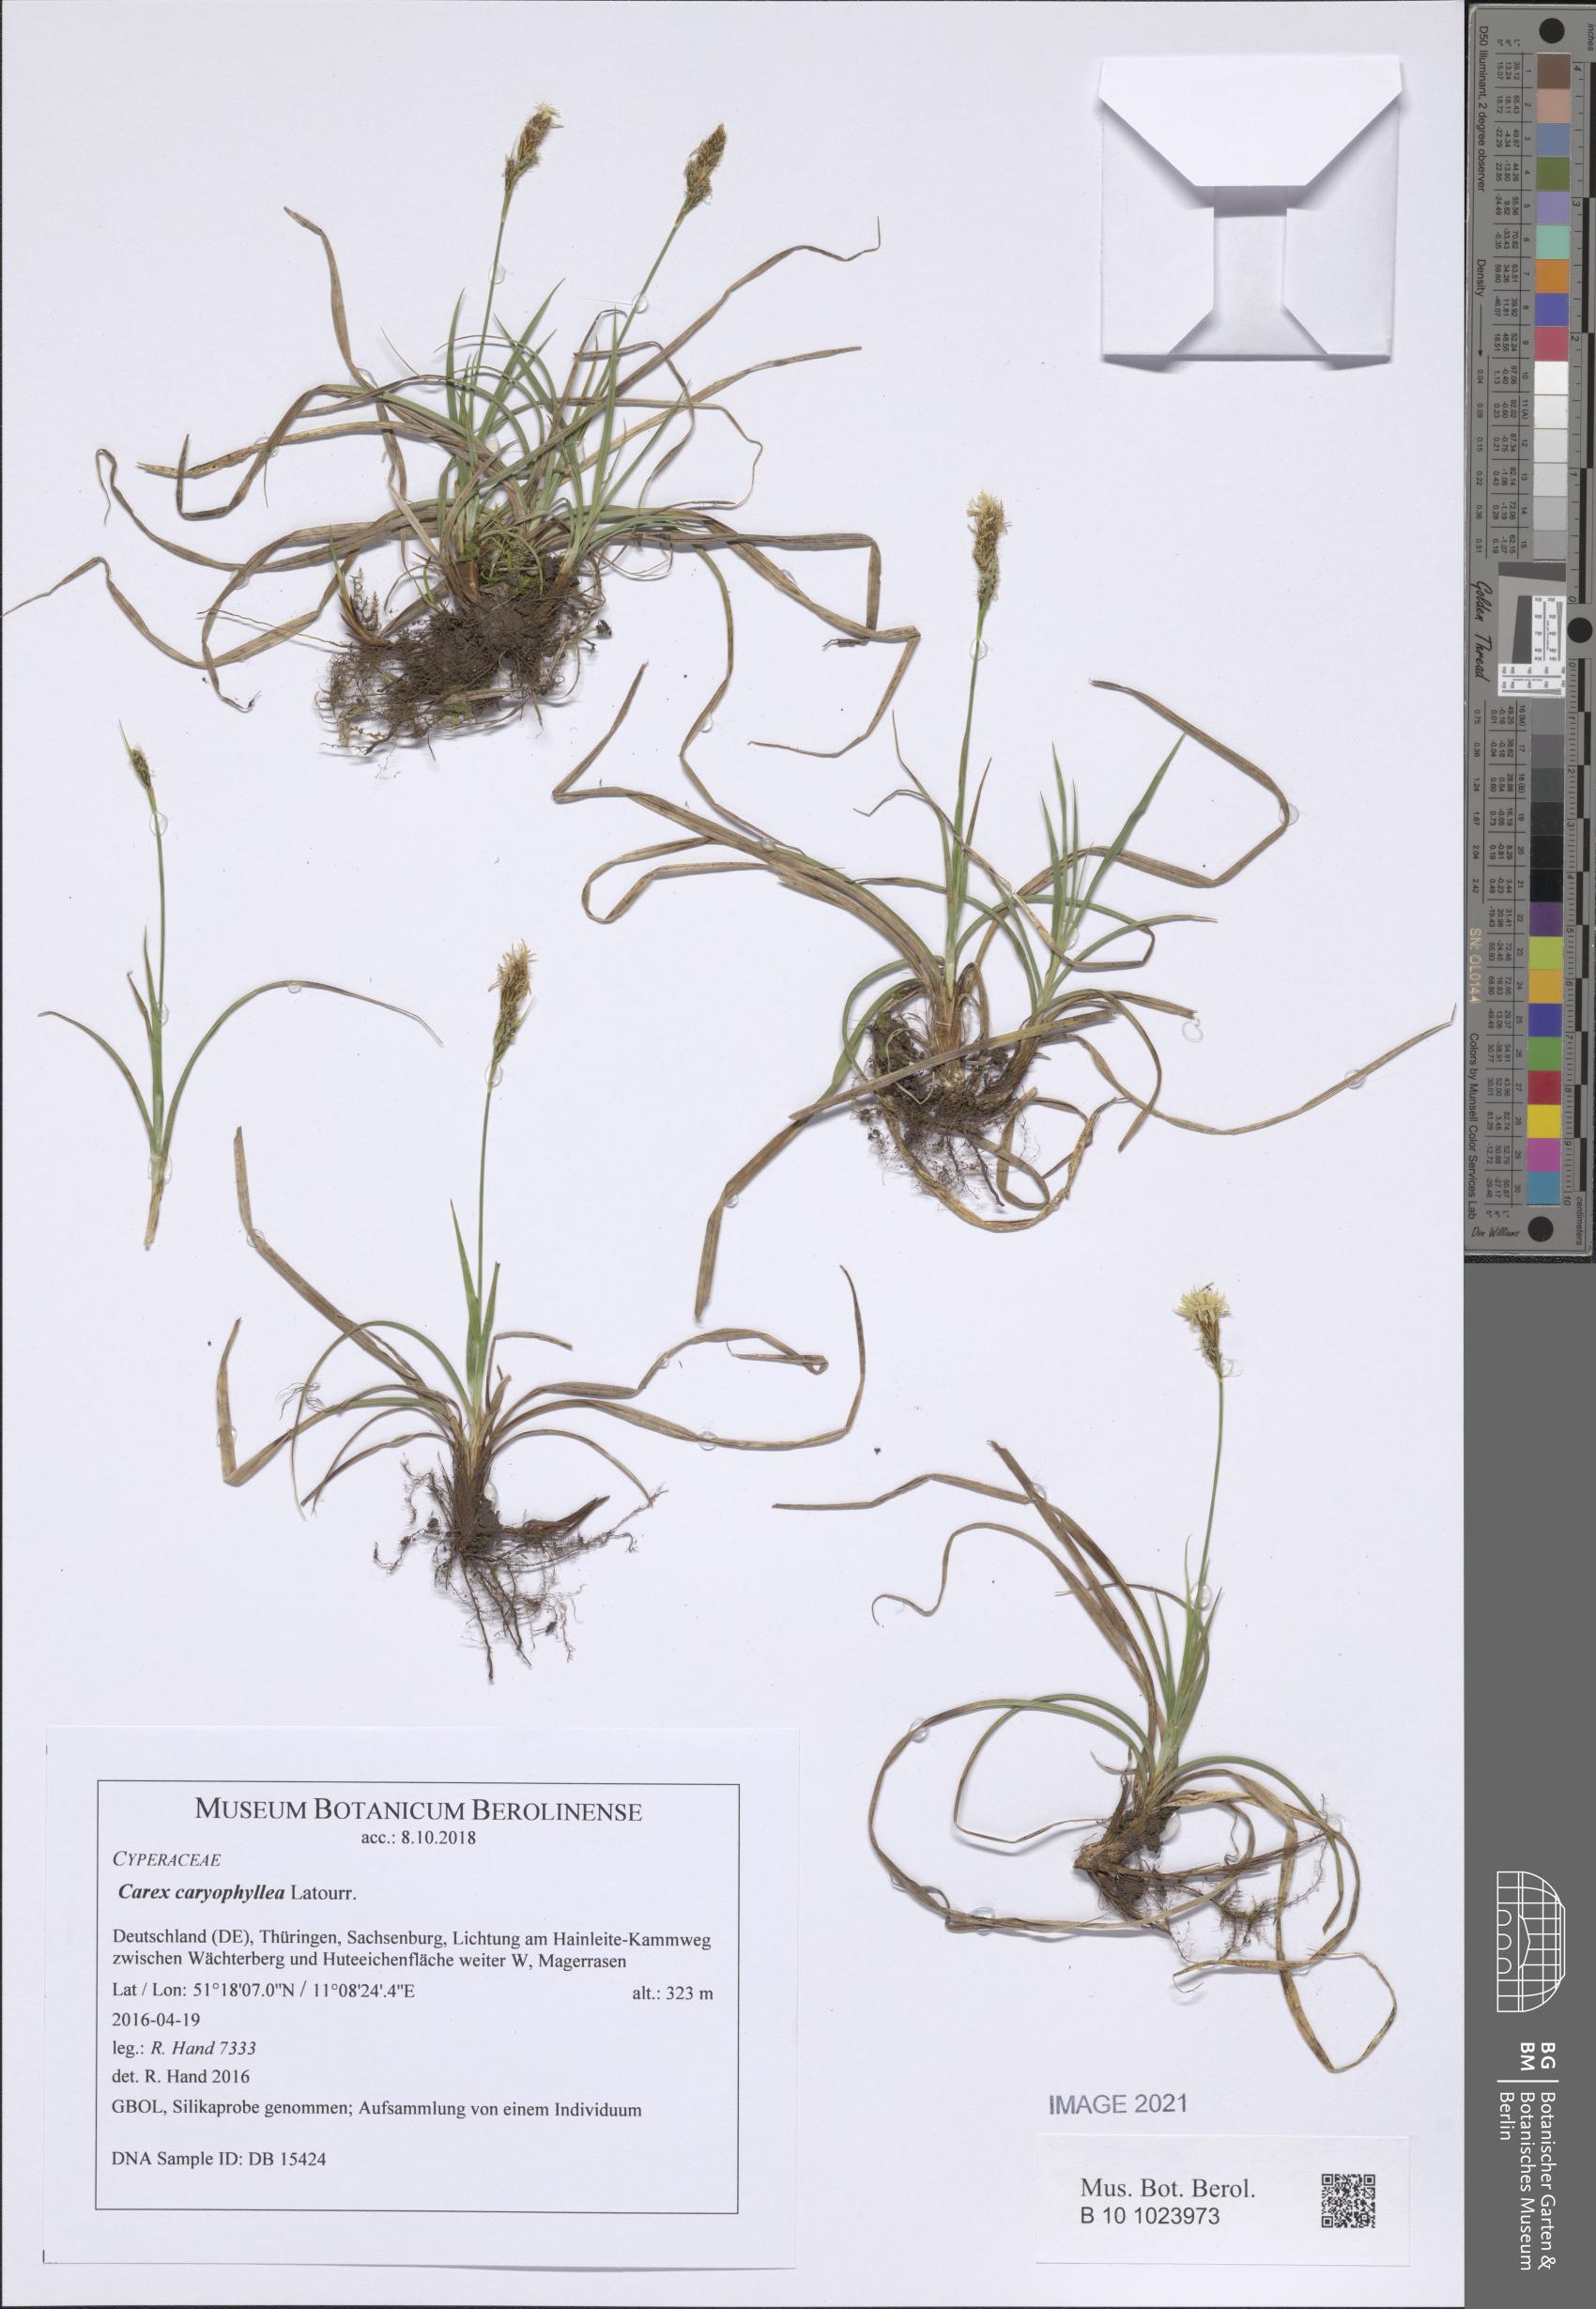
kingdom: Plantae
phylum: Tracheophyta
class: Liliopsida
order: Poales
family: Cyperaceae
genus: Carex
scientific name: Carex caryophyllea
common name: Spring sedge
